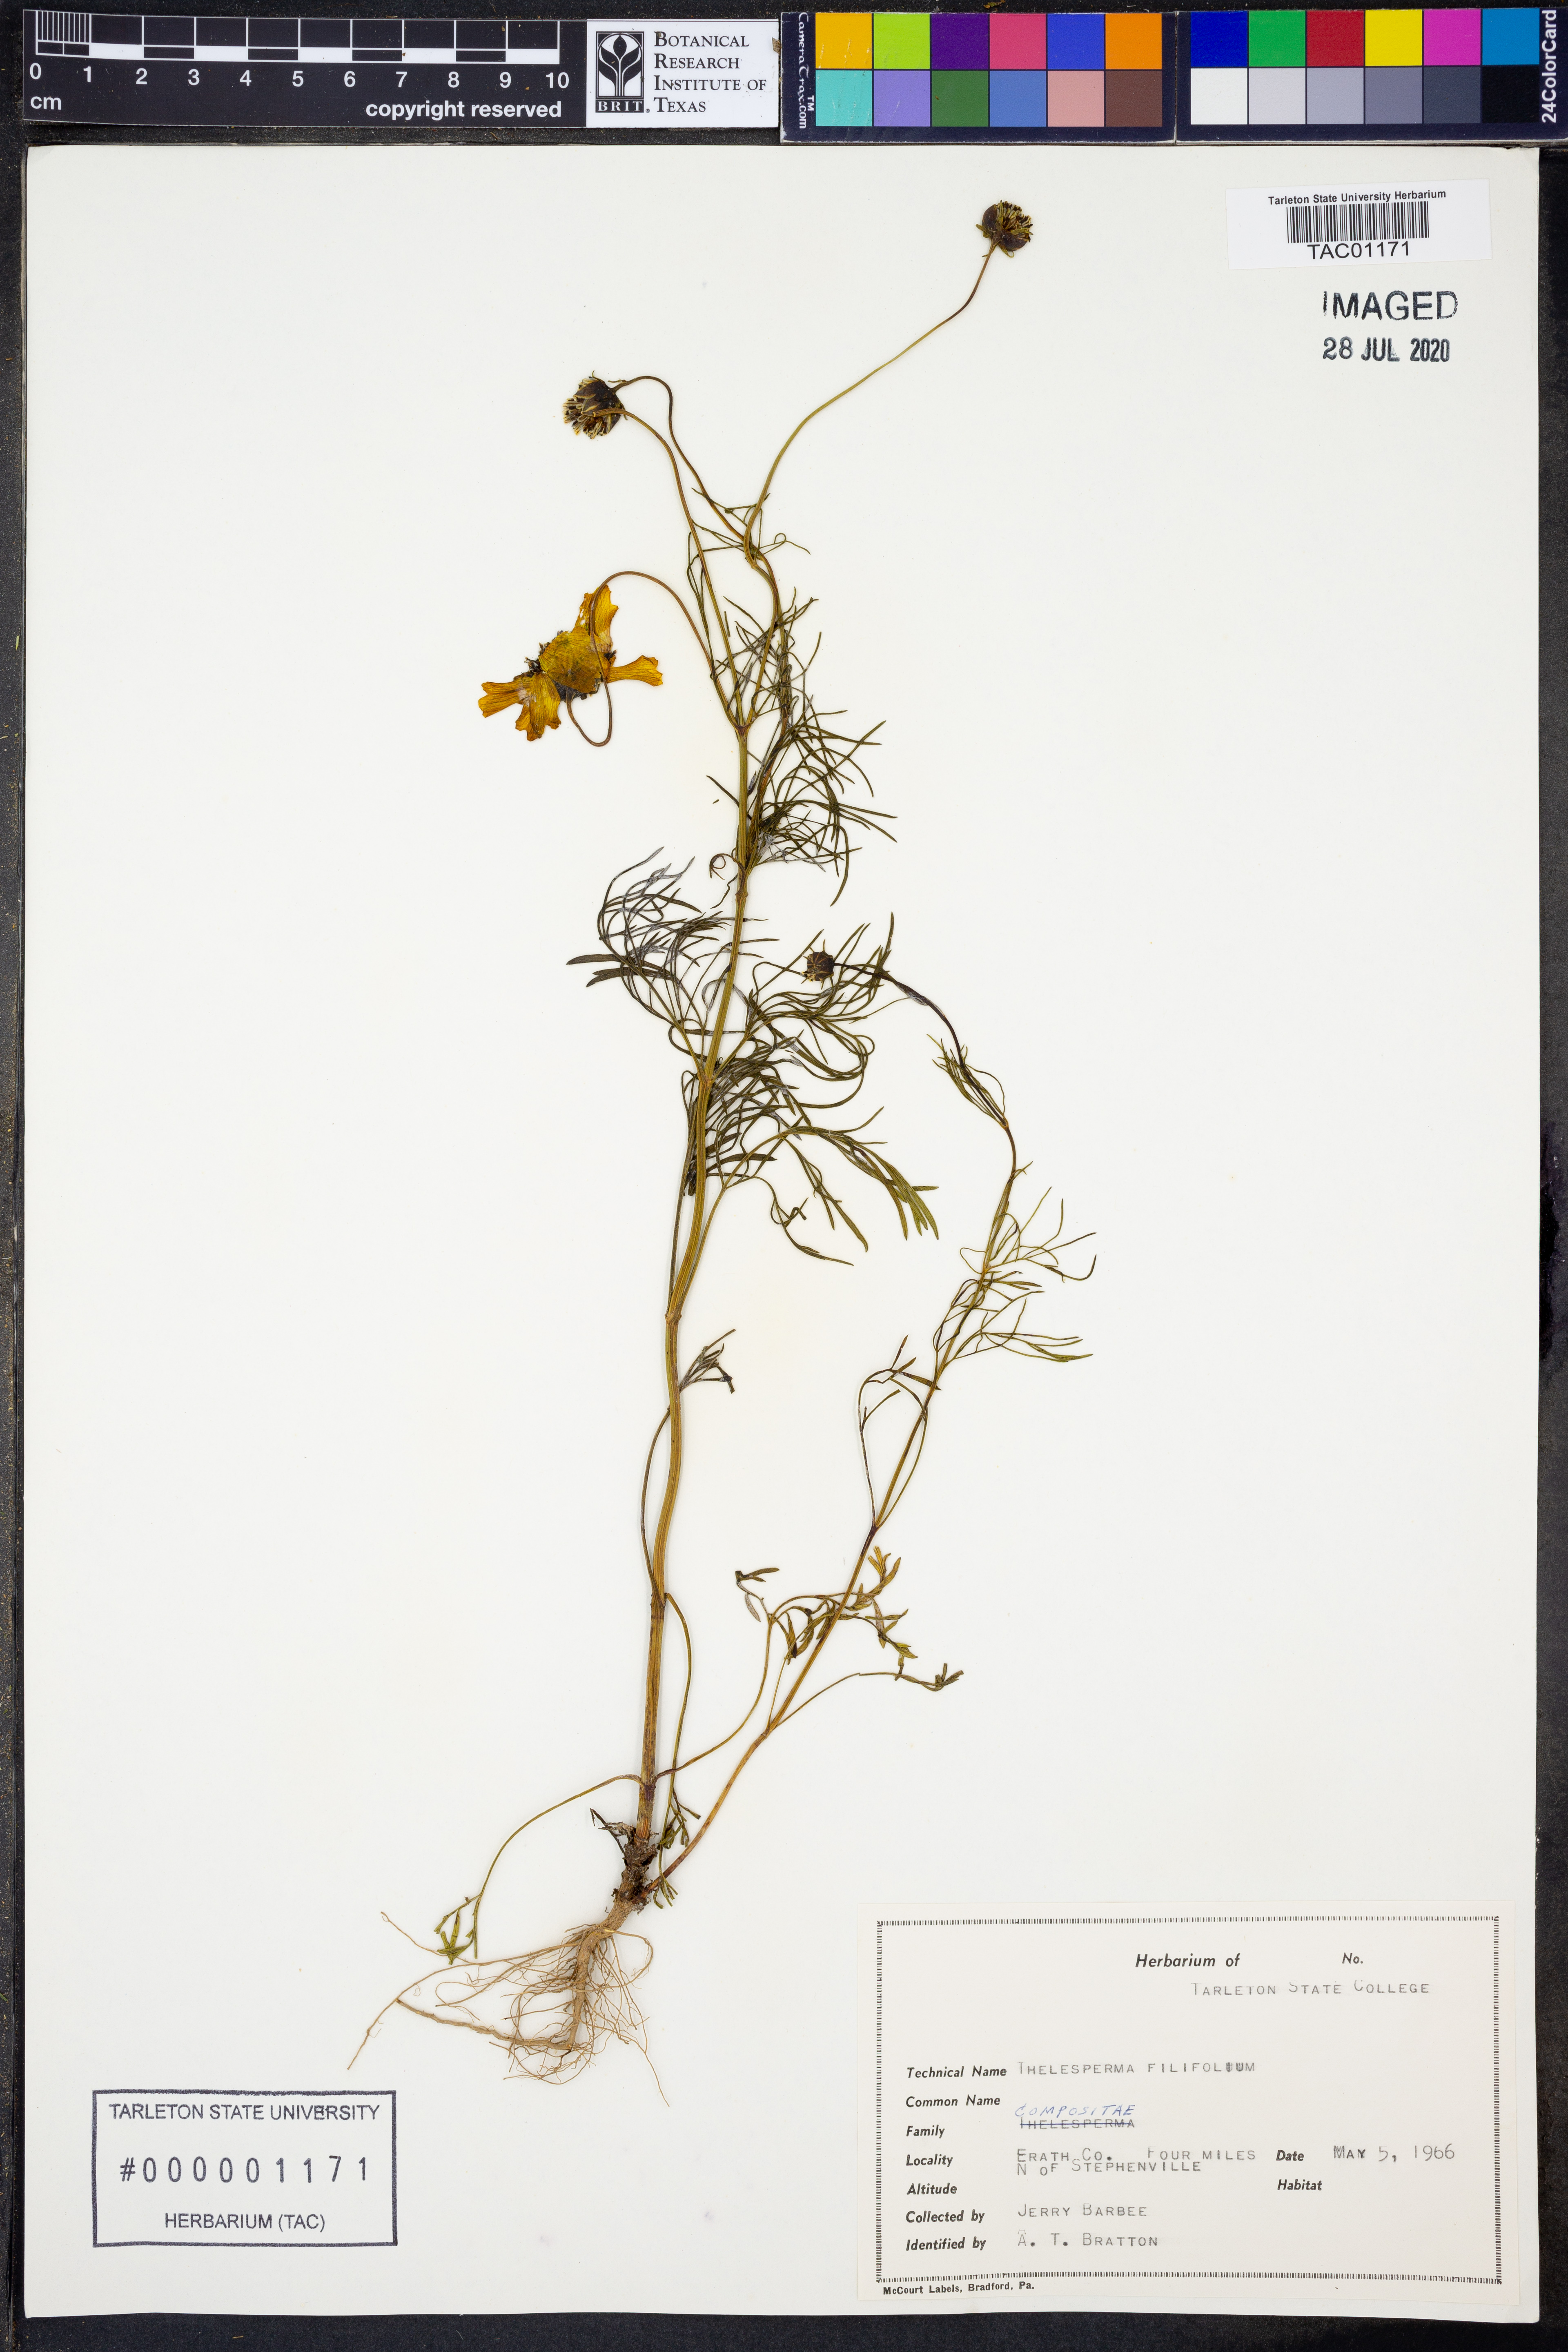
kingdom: Plantae
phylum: Tracheophyta
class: Magnoliopsida
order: Asterales
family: Asteraceae
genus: Thelesperma
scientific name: Thelesperma filifolium
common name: Stiff greenthread
